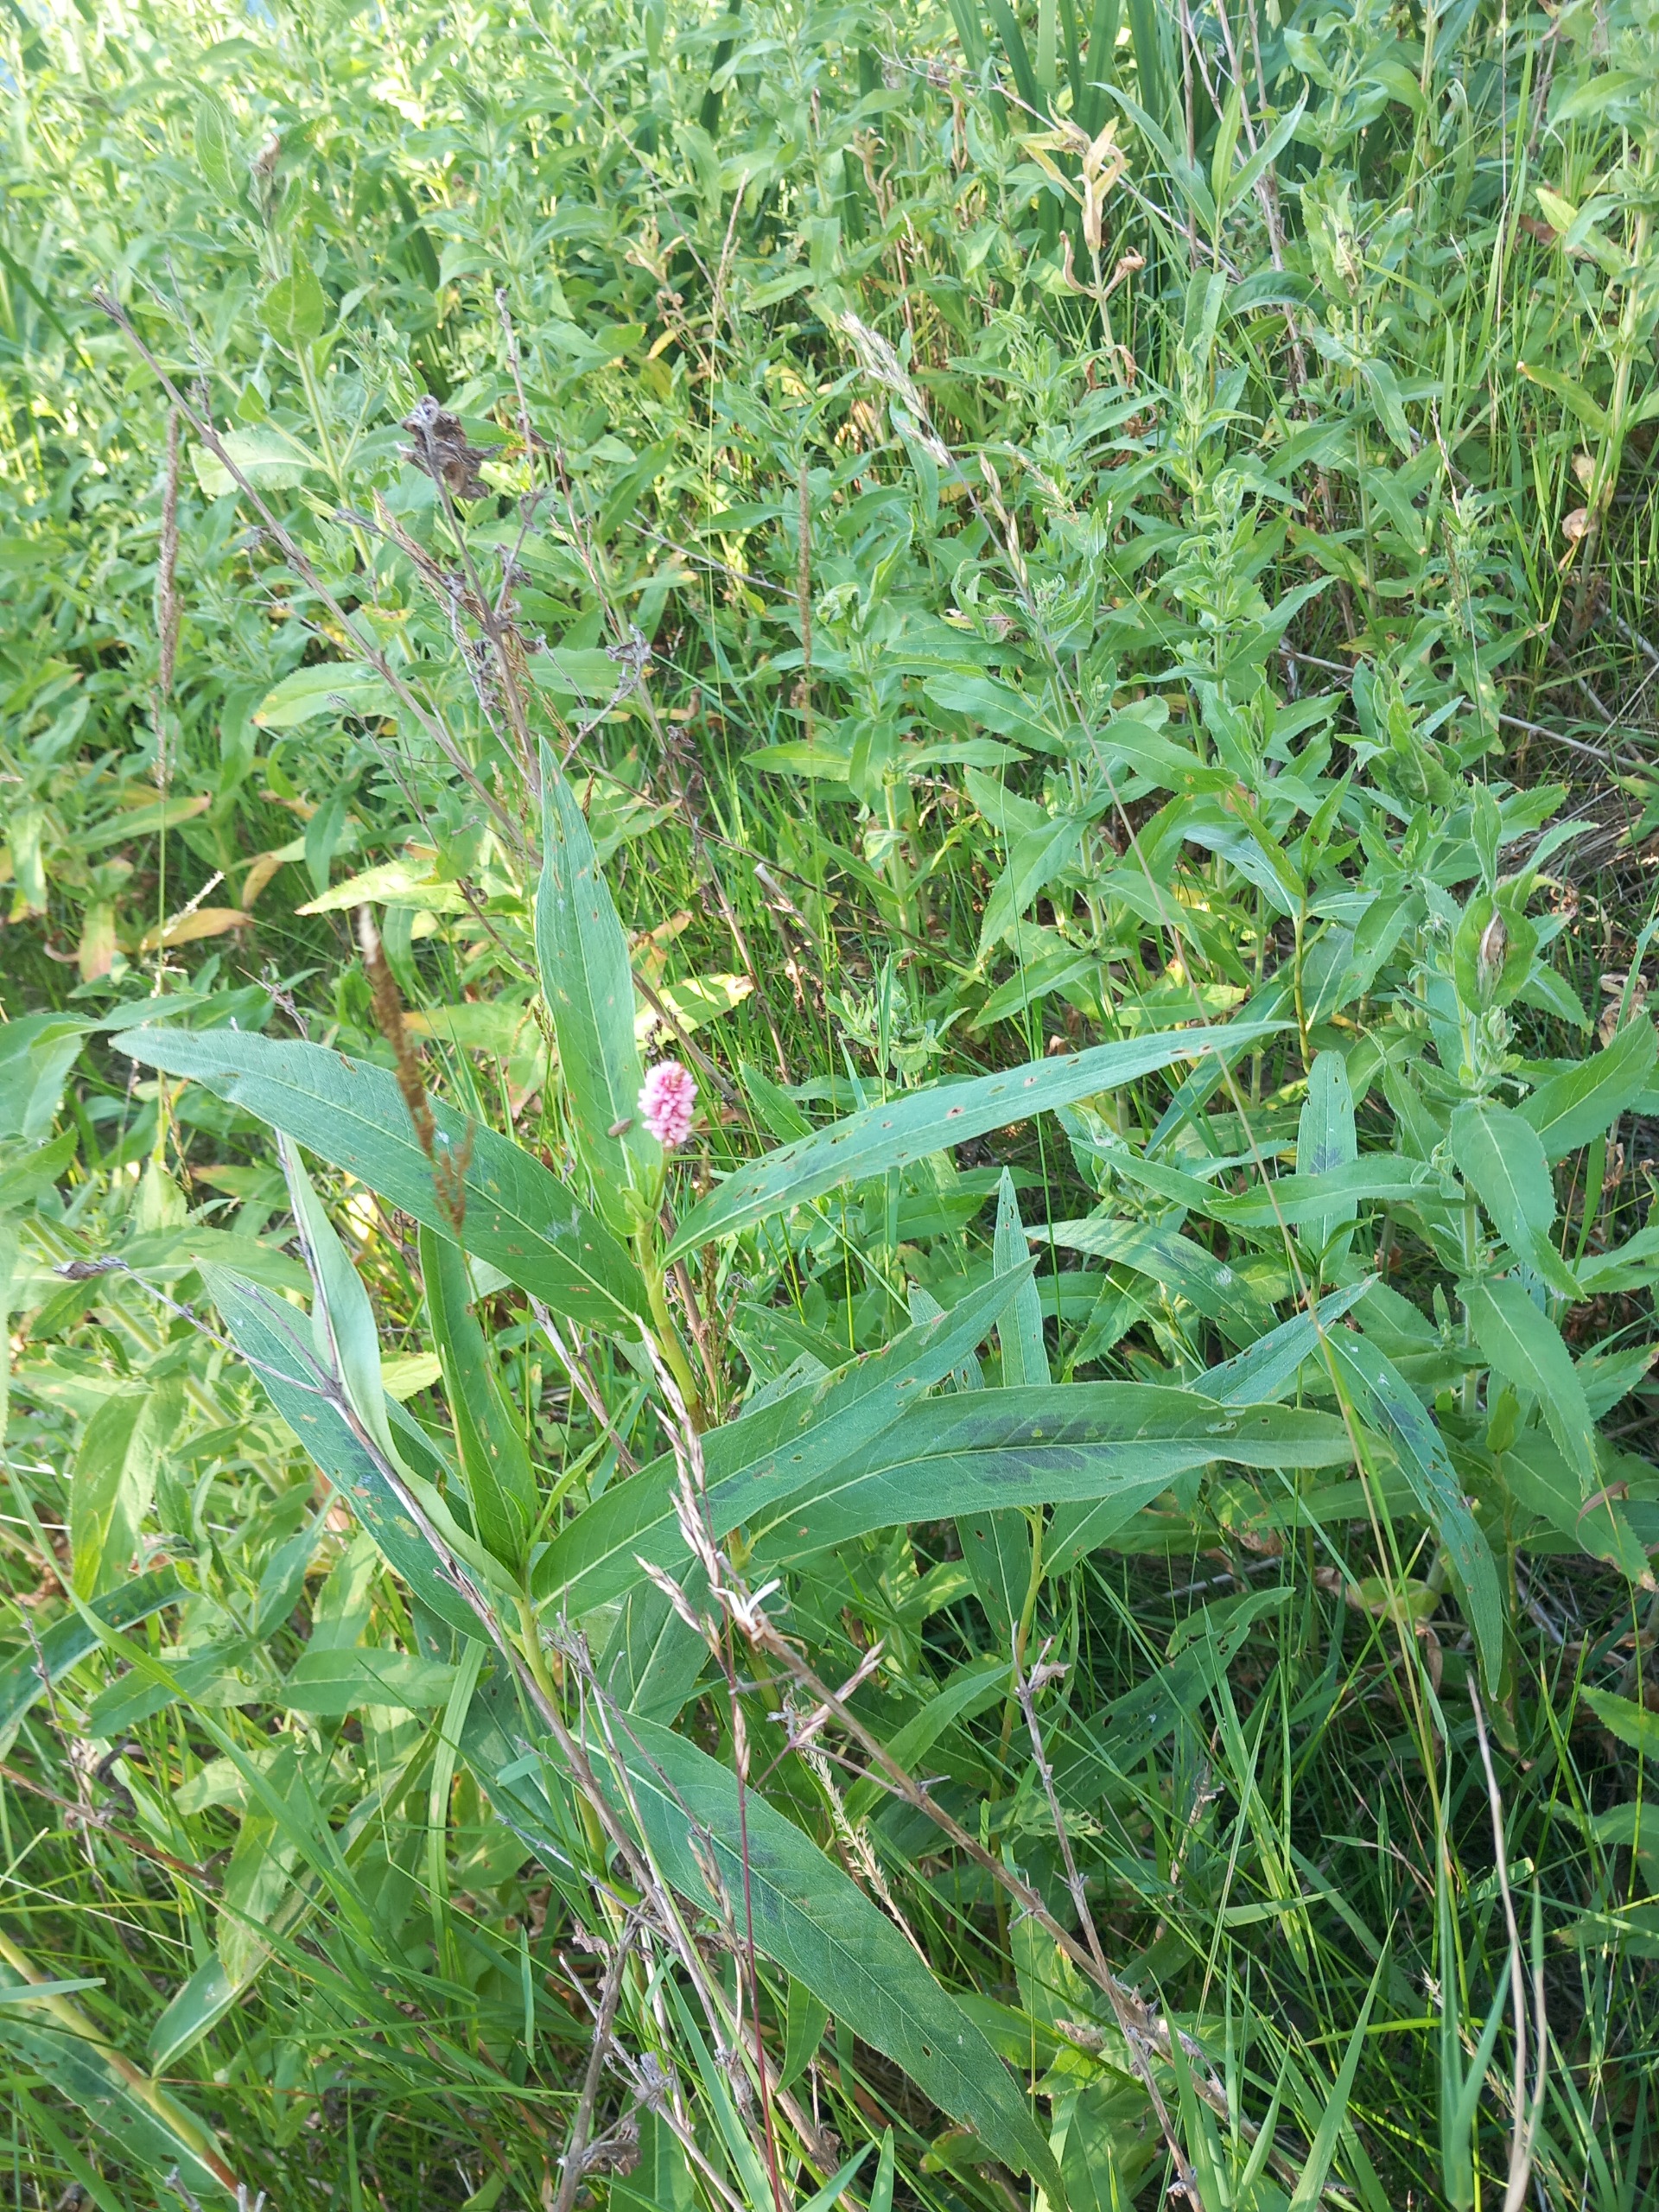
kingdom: Plantae
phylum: Tracheophyta
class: Magnoliopsida
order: Caryophyllales
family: Polygonaceae
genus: Persicaria
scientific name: Persicaria amphibia
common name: Vand-pileurt
